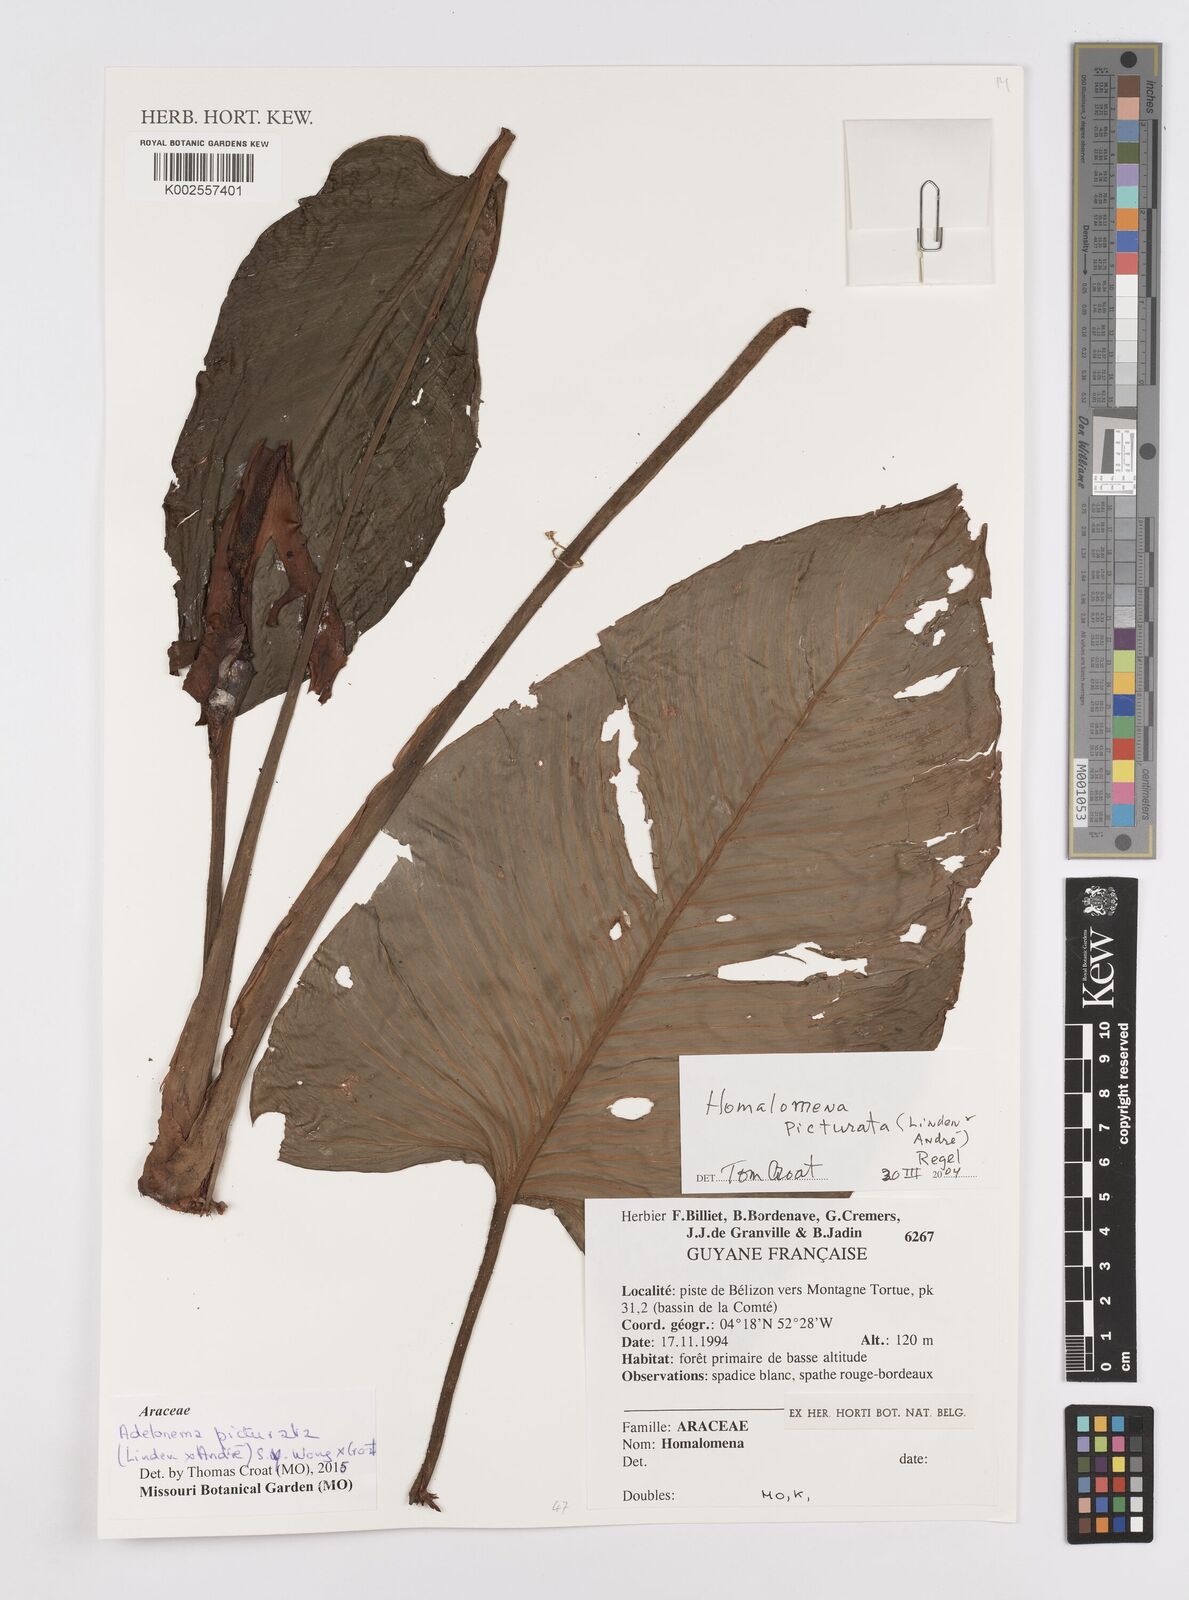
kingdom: Plantae
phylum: Tracheophyta
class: Liliopsida
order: Alismatales
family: Araceae
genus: Adelonema
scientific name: Adelonema picturatum
